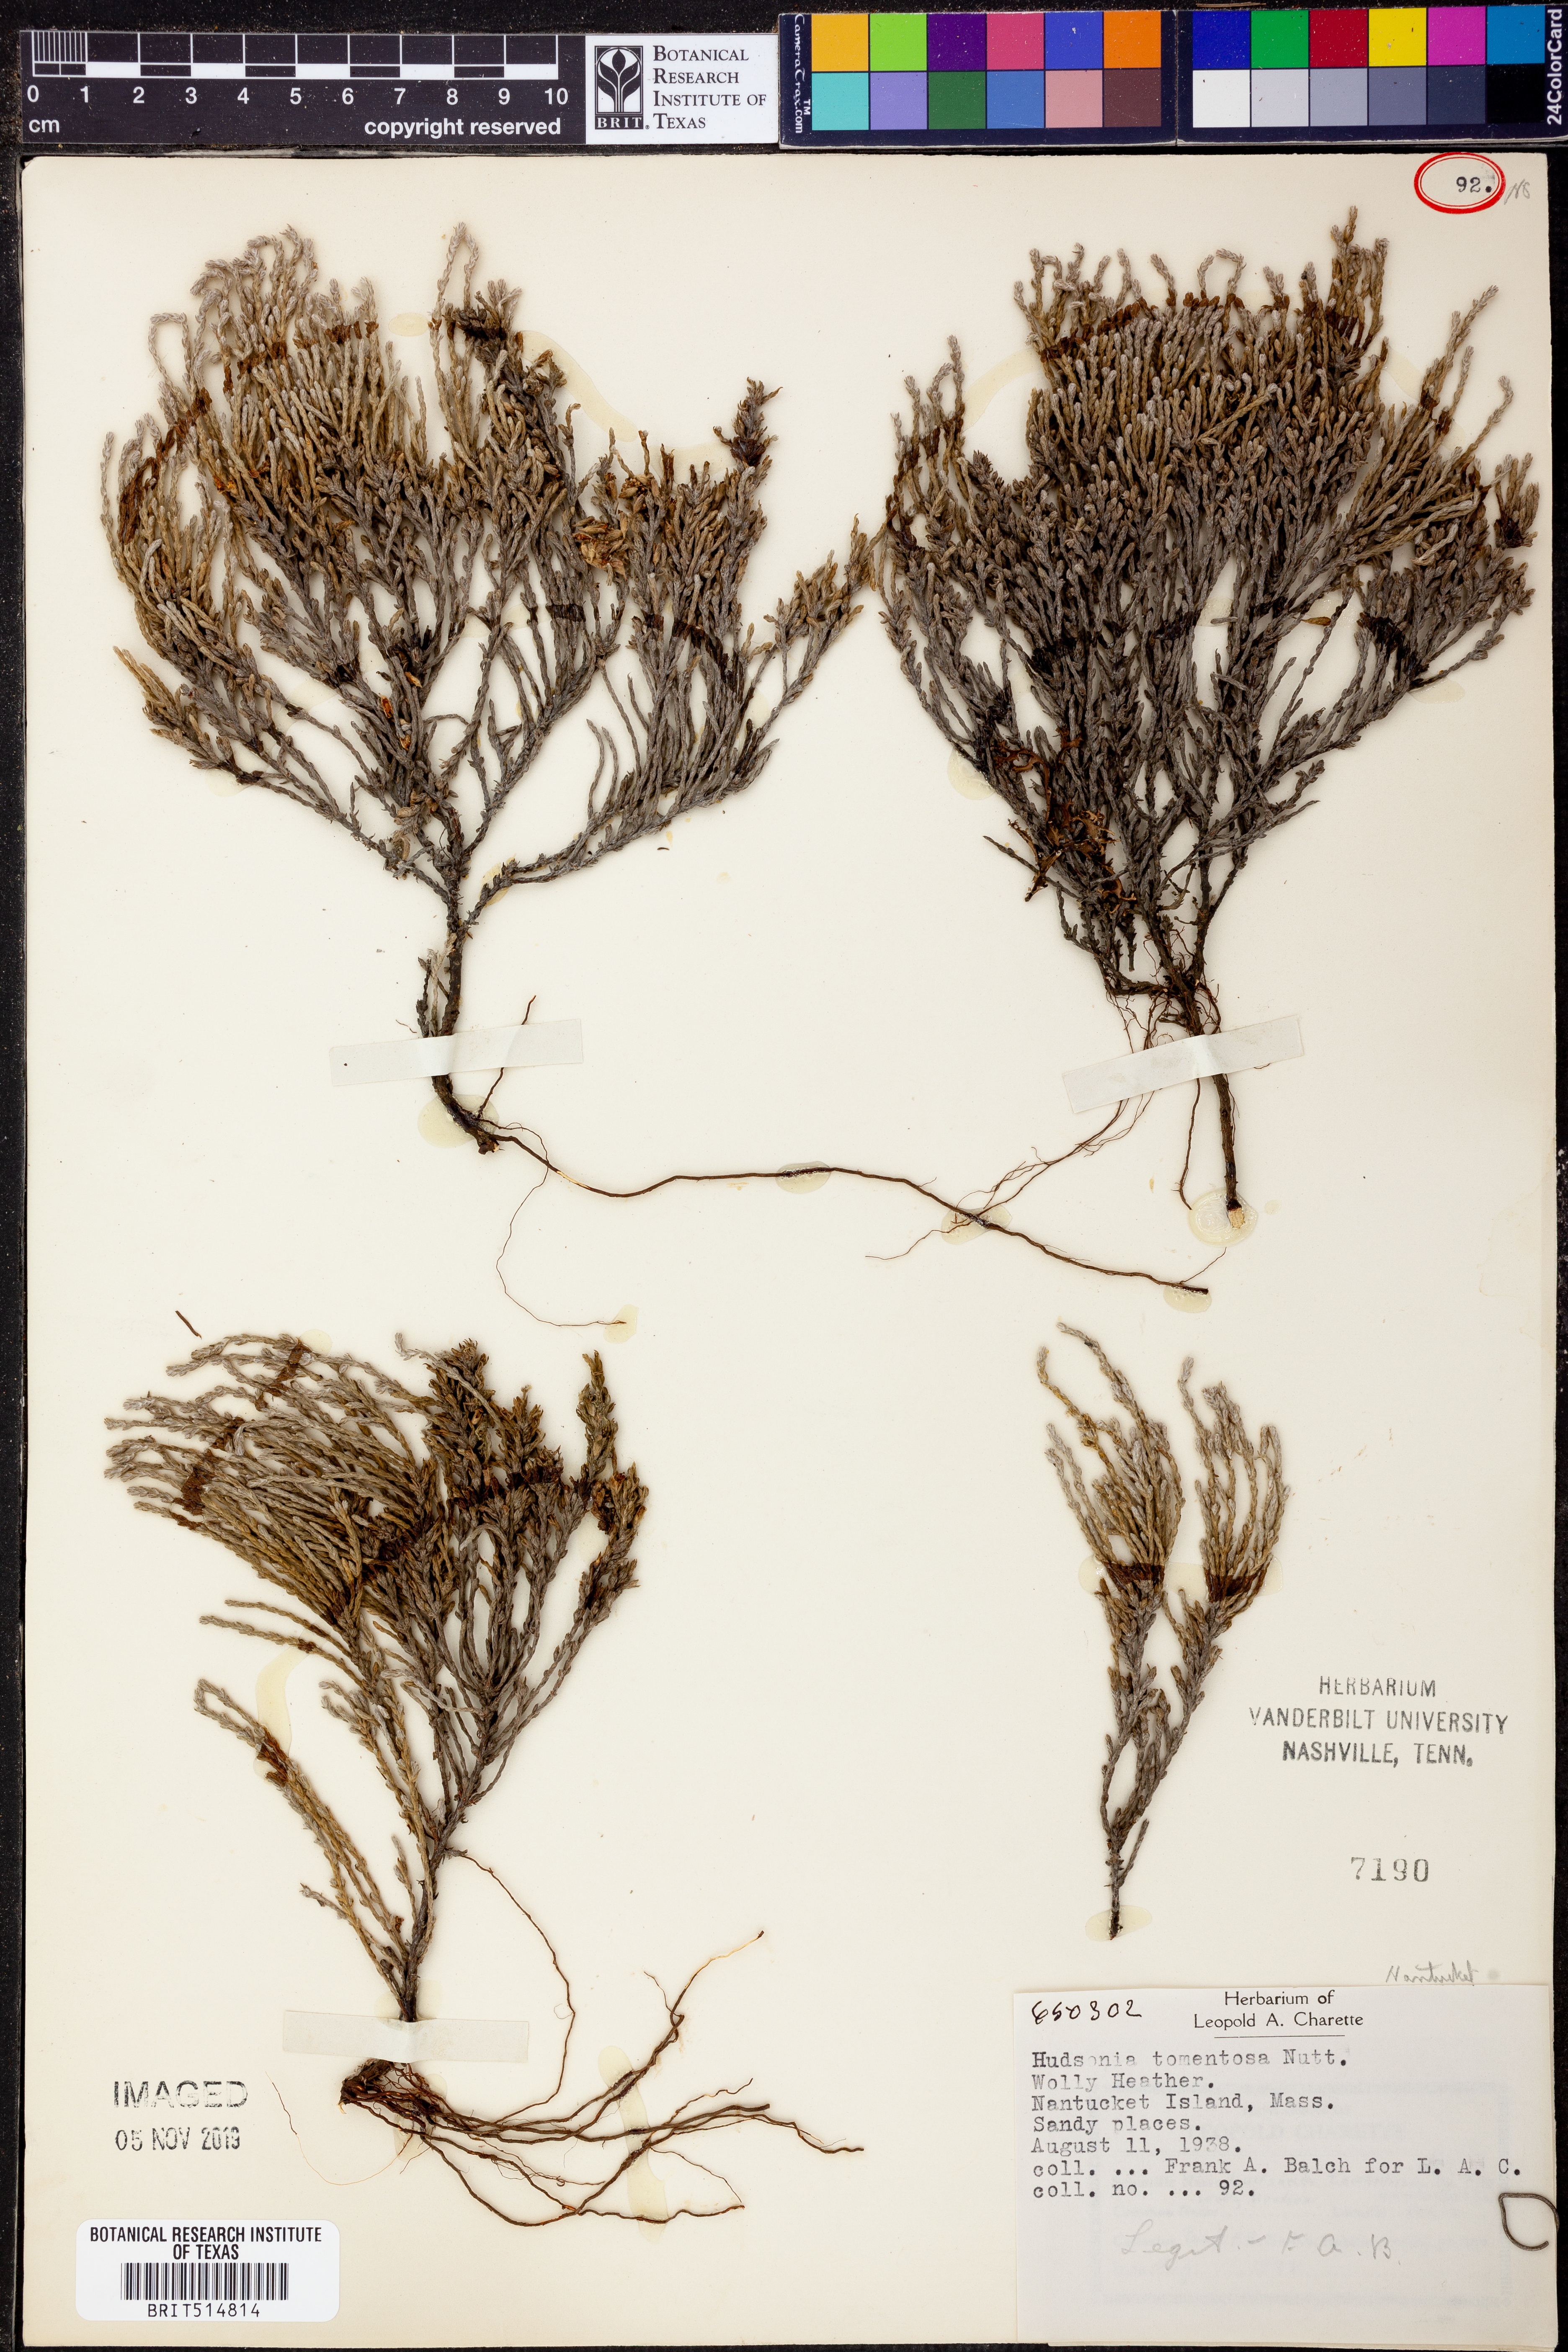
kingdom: Plantae
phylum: Tracheophyta
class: Magnoliopsida
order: Malvales
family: Cistaceae
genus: Hudsonia
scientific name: Hudsonia tomentosa
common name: Beach-heath
